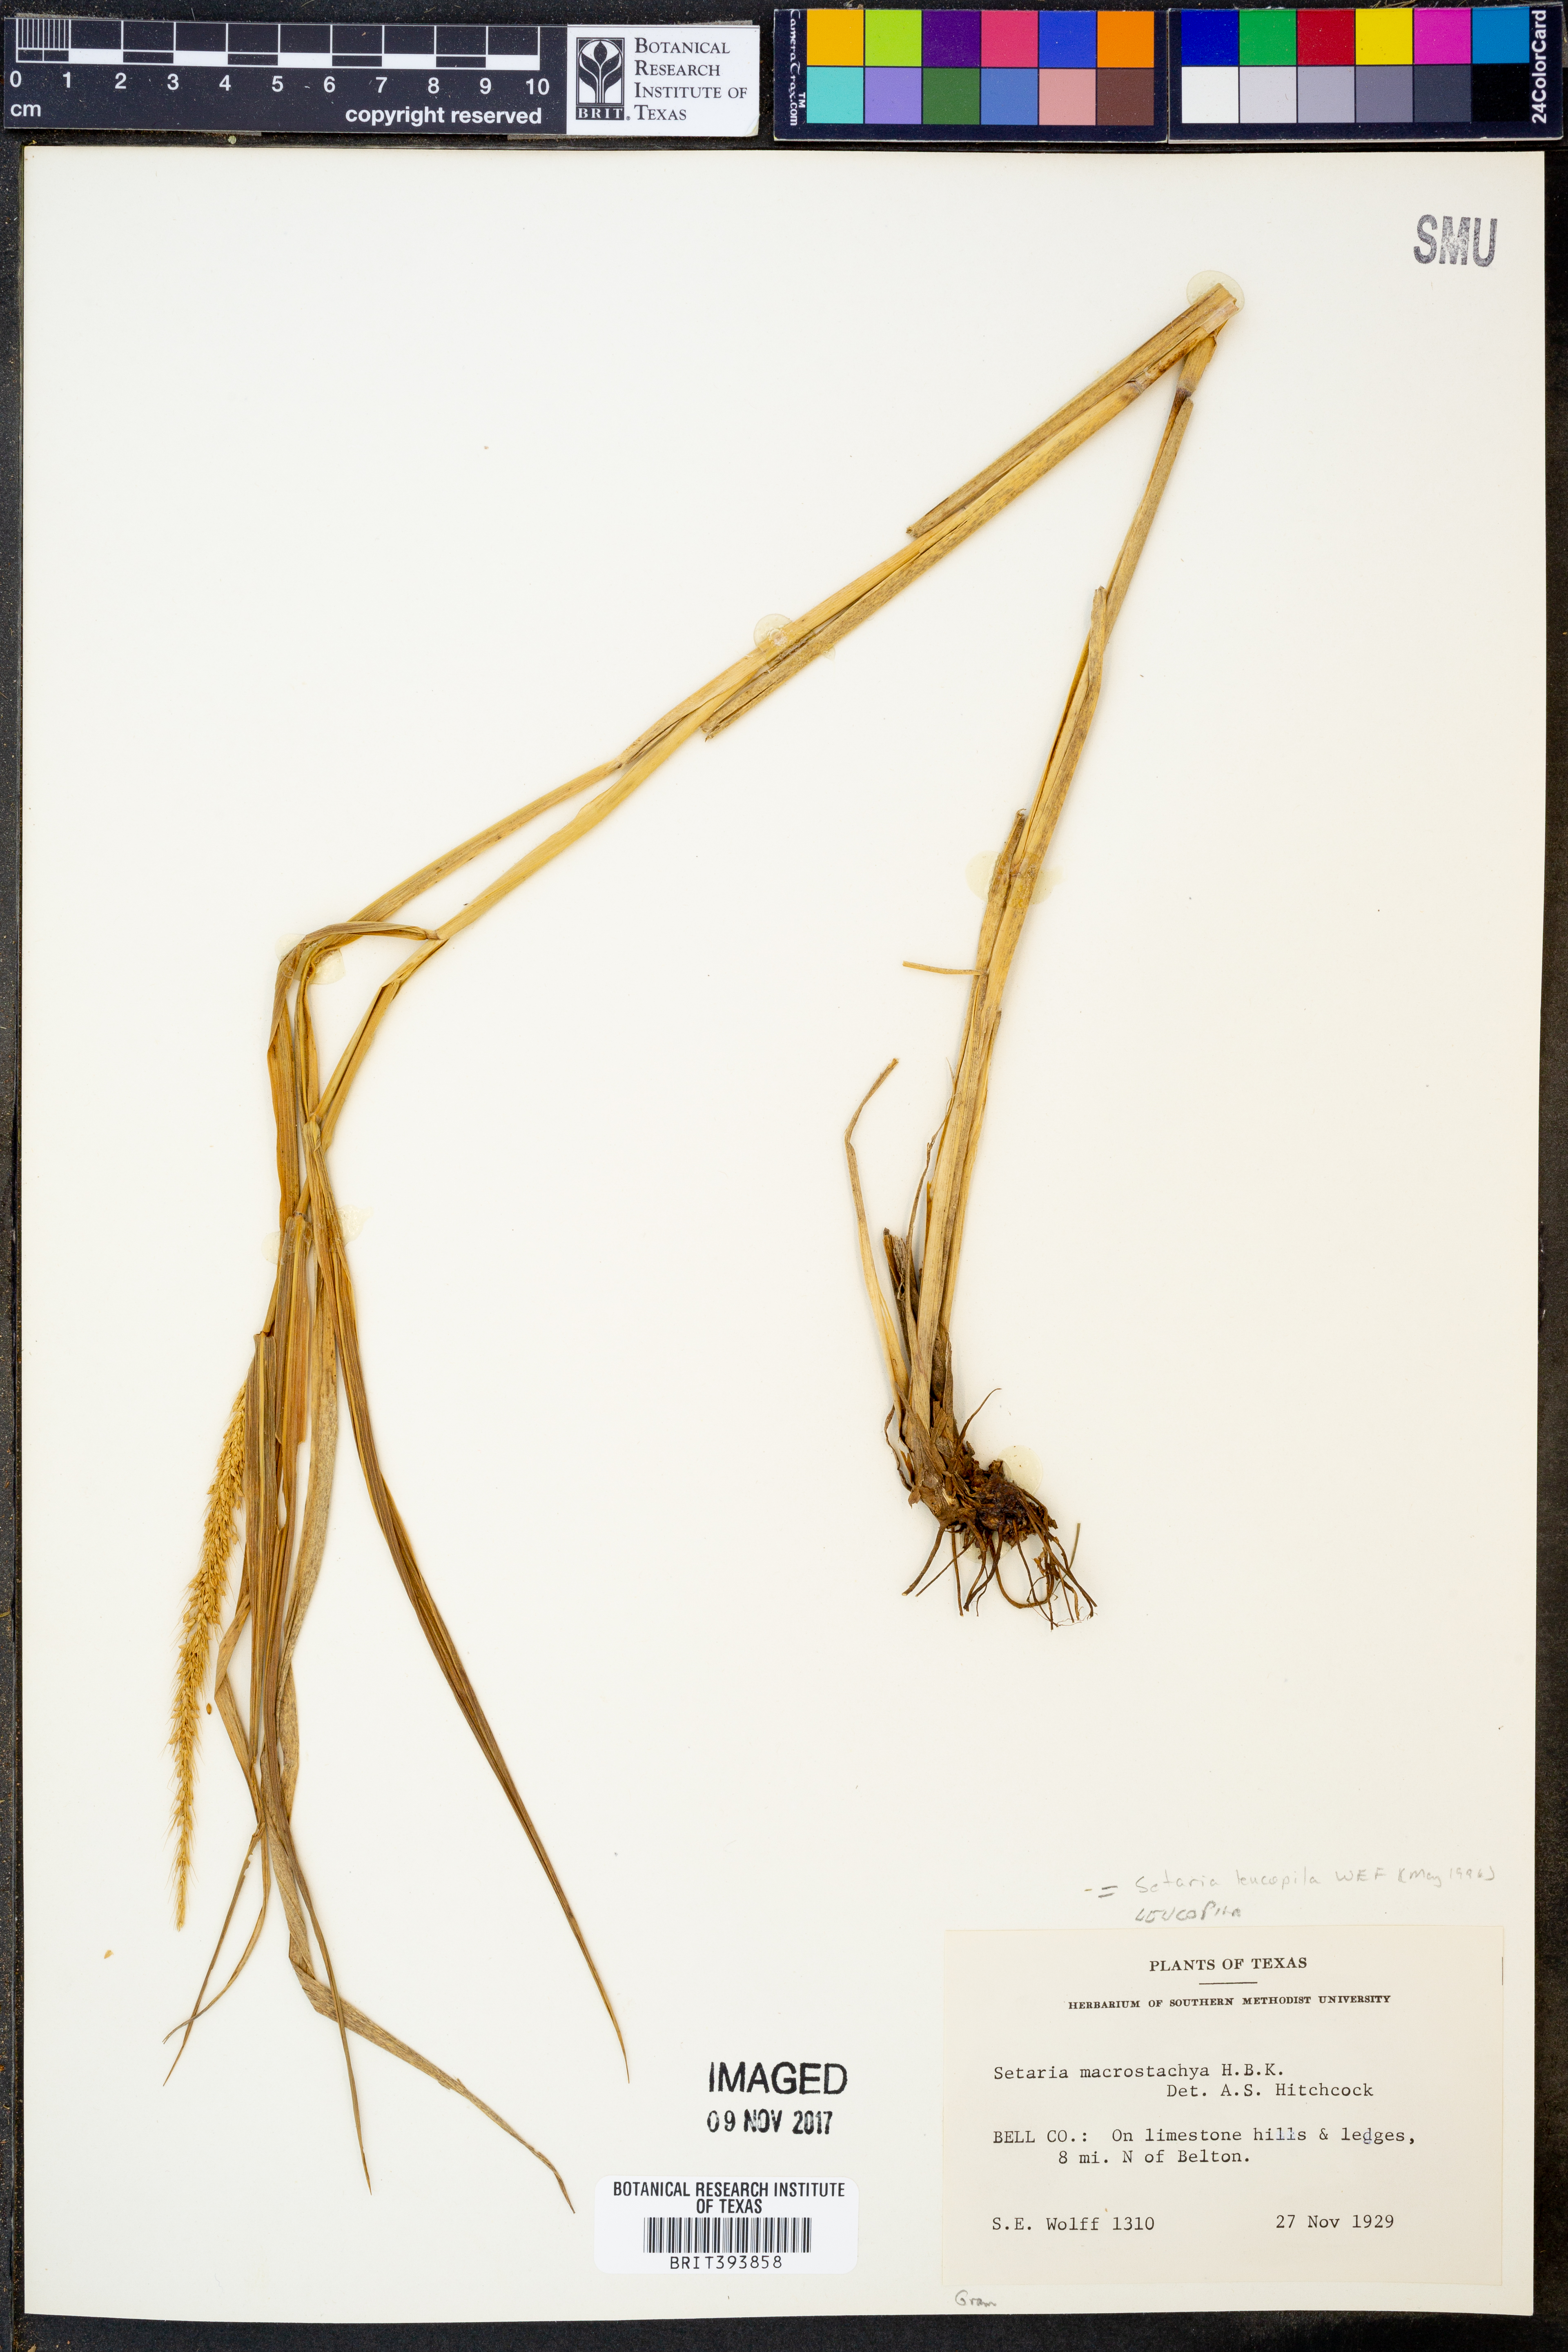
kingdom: Plantae
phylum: Tracheophyta
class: Liliopsida
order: Poales
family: Poaceae
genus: Setaria
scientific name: Setaria leucopila
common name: Plains bristle grass
